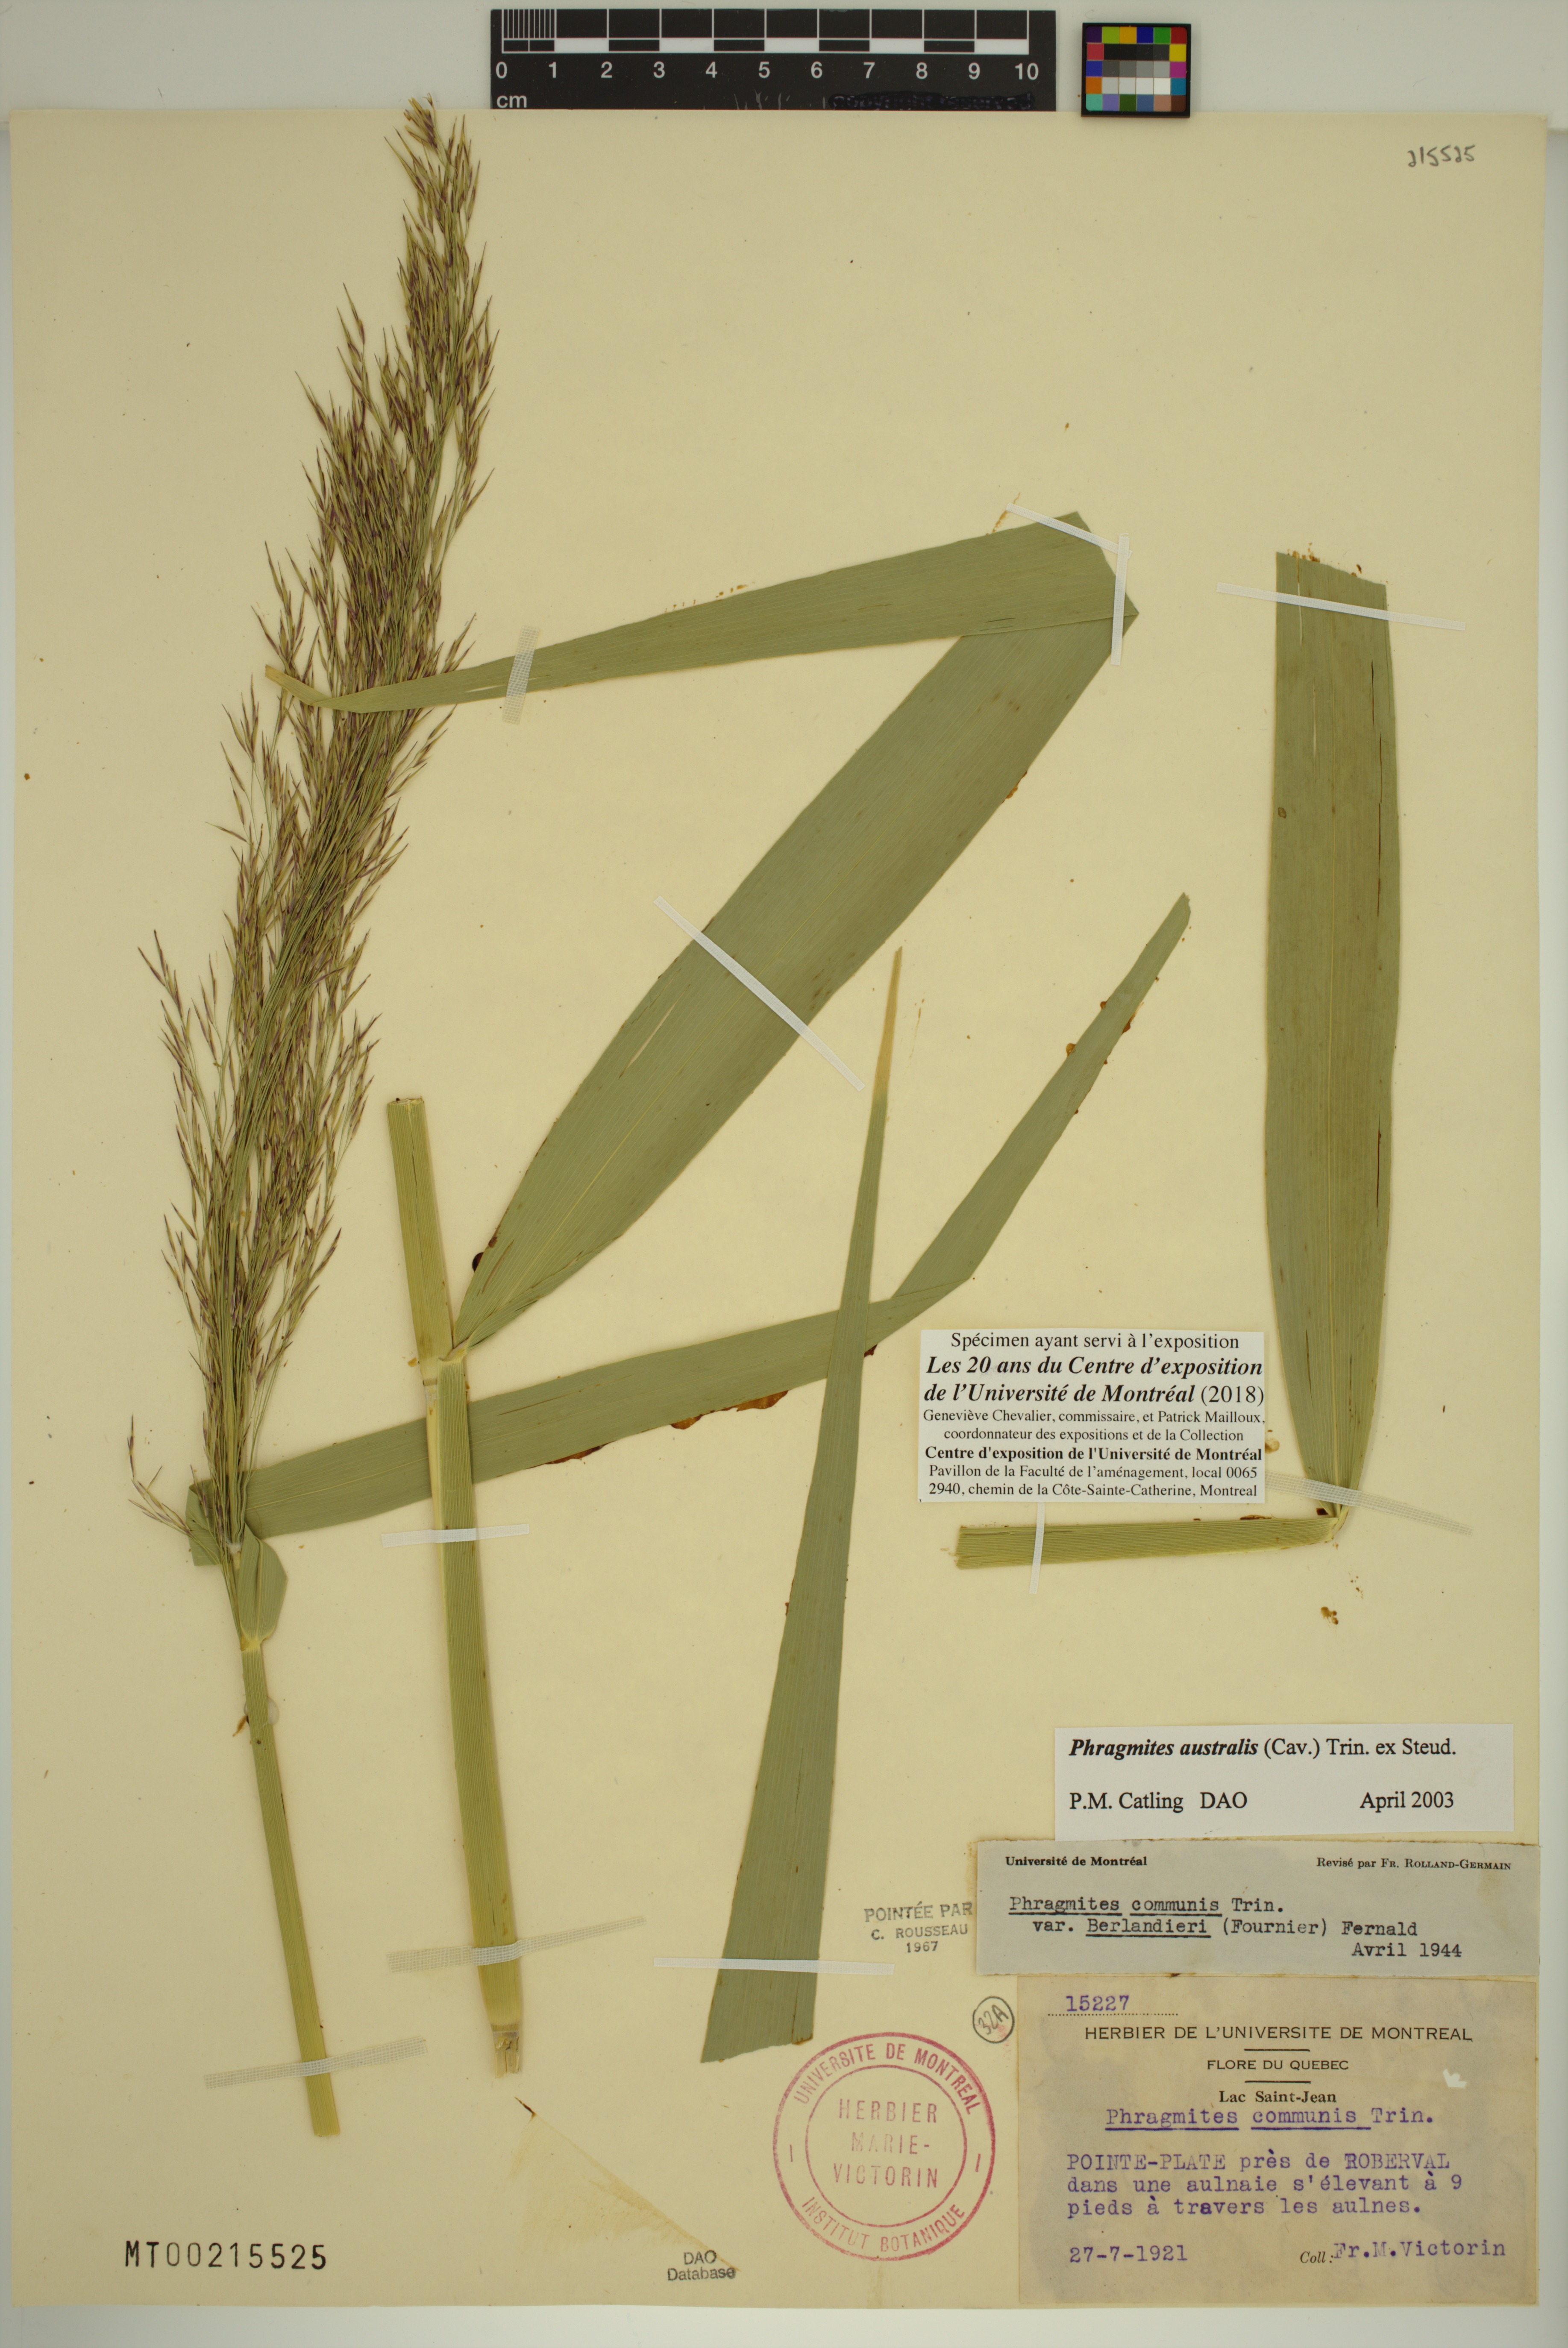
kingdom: Plantae
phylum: Tracheophyta
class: Liliopsida
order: Poales
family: Poaceae
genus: Phragmites
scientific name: Phragmites australis
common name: Common reed
